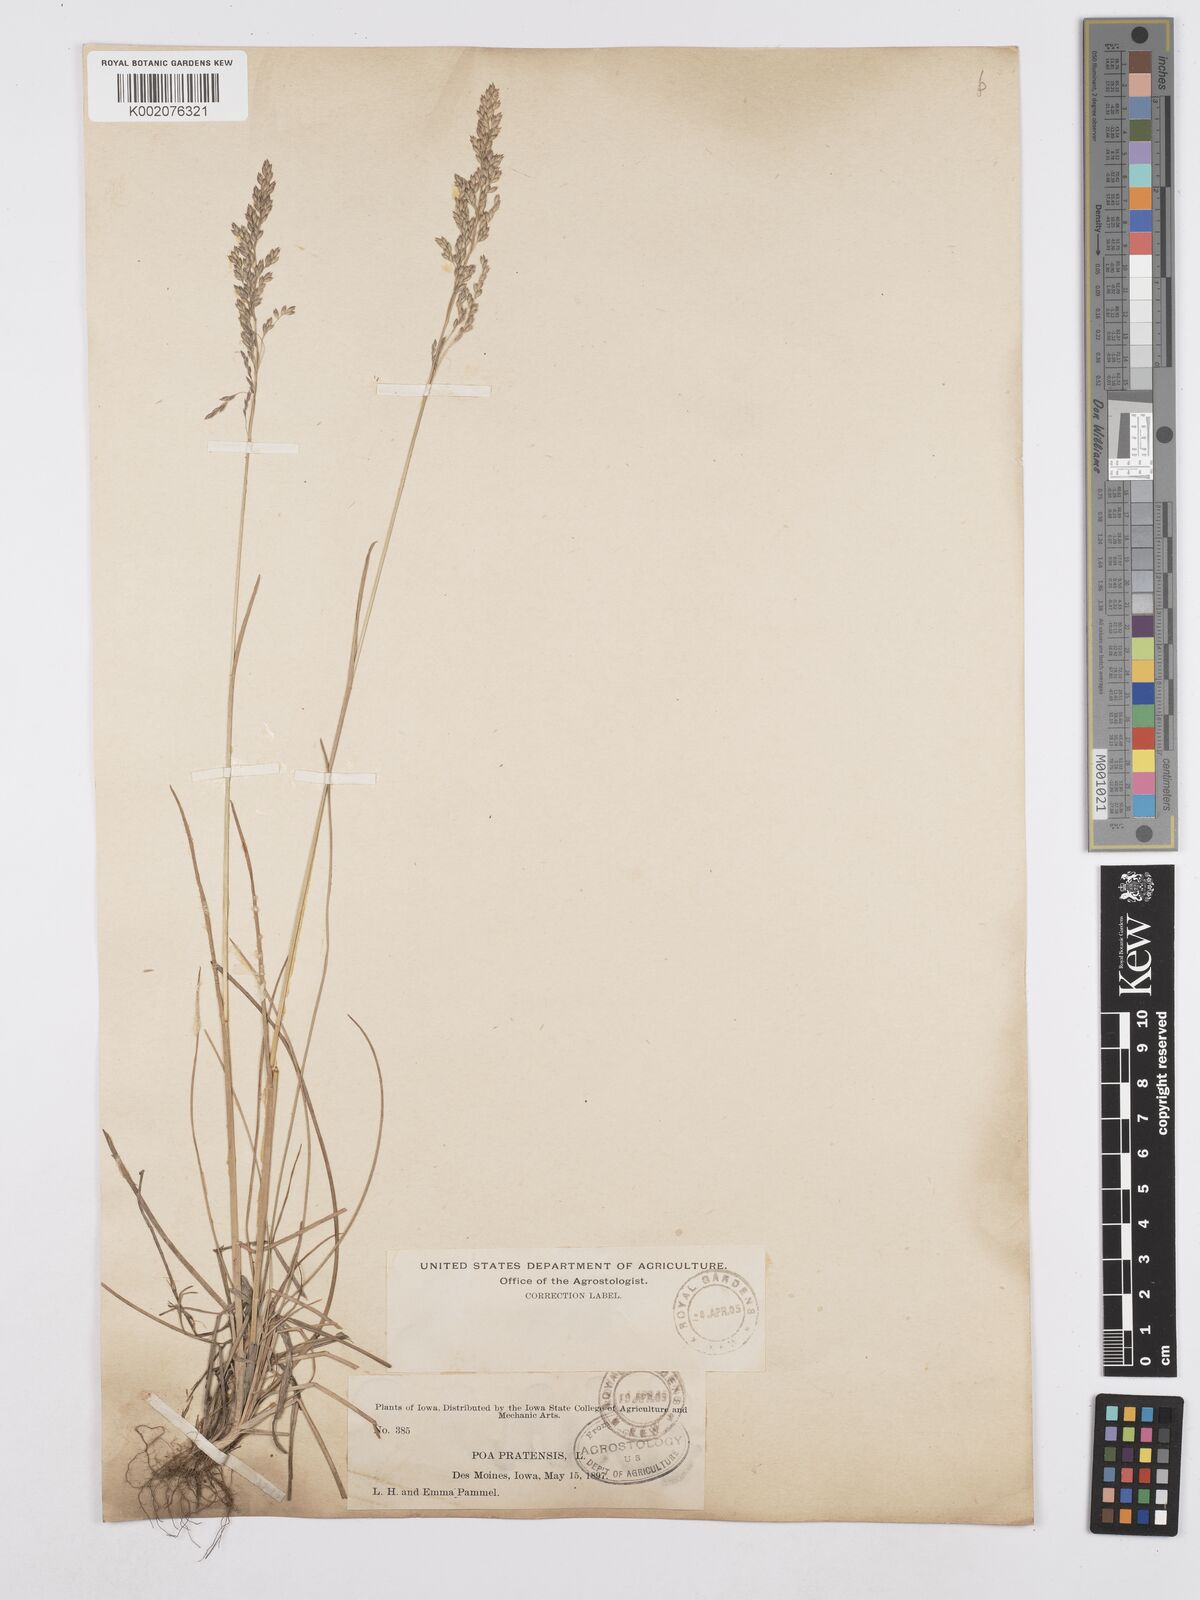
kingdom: Plantae
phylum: Tracheophyta
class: Liliopsida
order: Poales
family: Poaceae
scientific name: Poaceae
